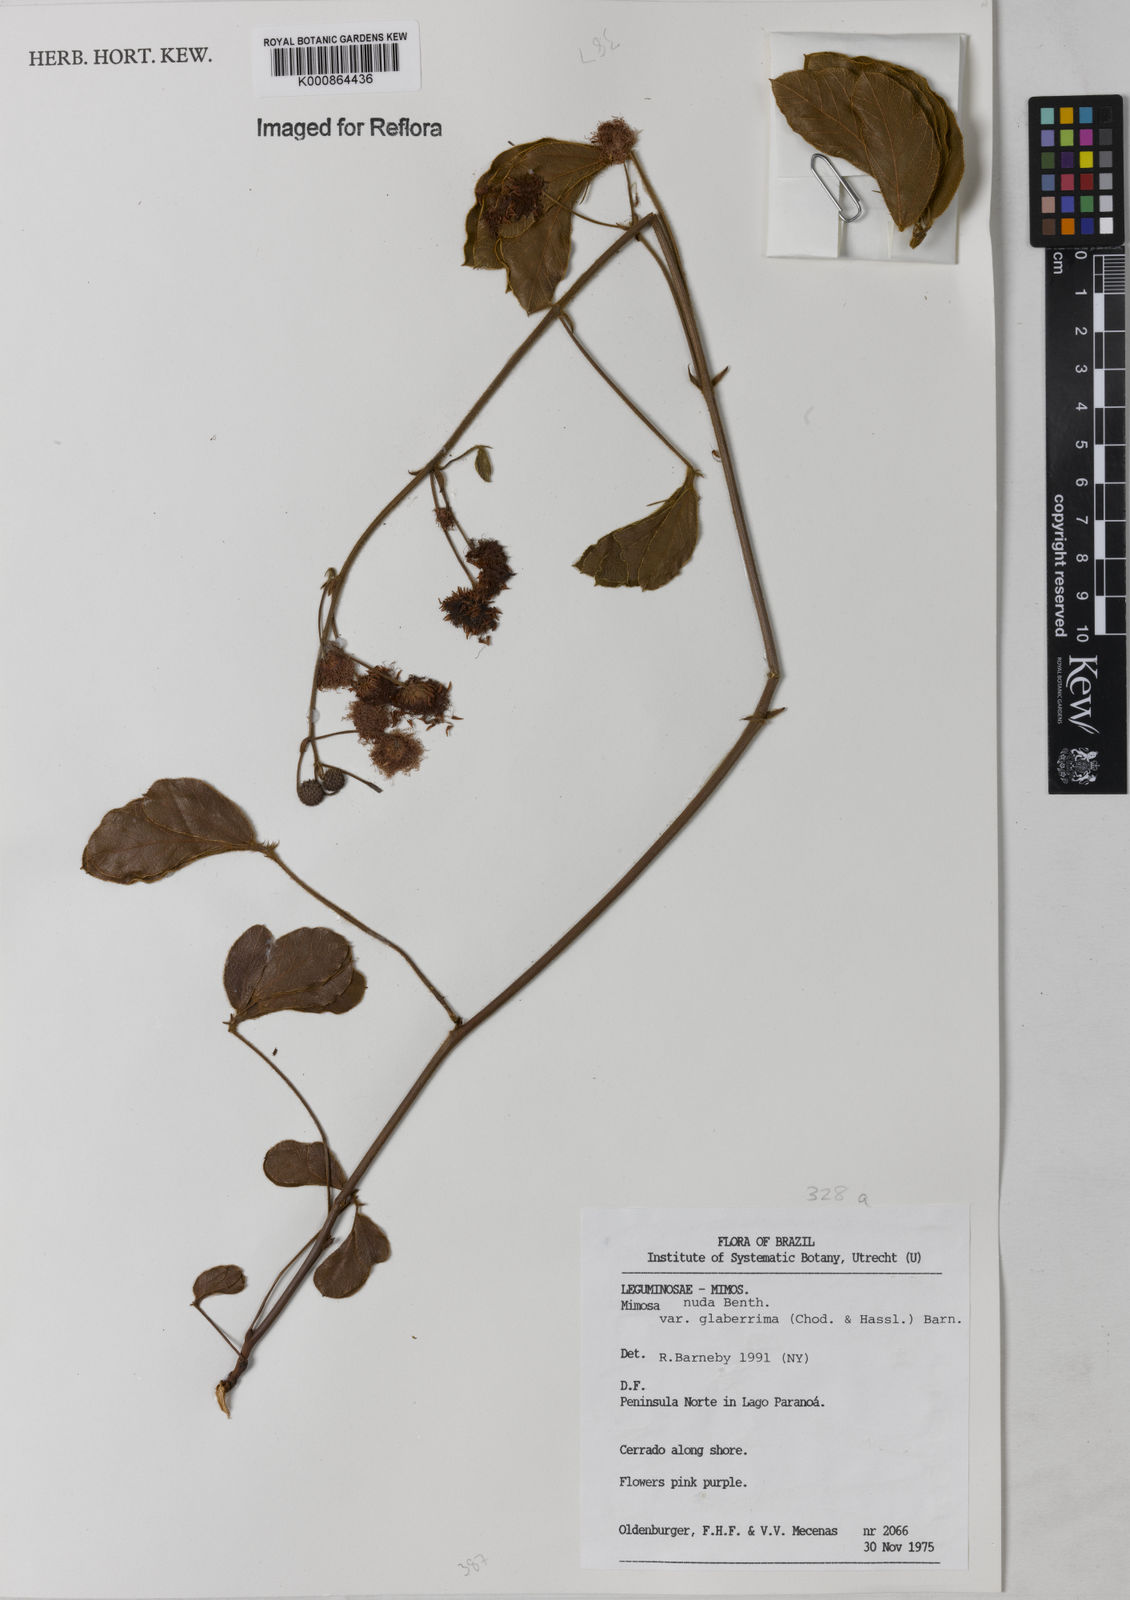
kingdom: Plantae
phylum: Tracheophyta
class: Magnoliopsida
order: Fabales
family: Fabaceae
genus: Mimosa
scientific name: Mimosa debilis
